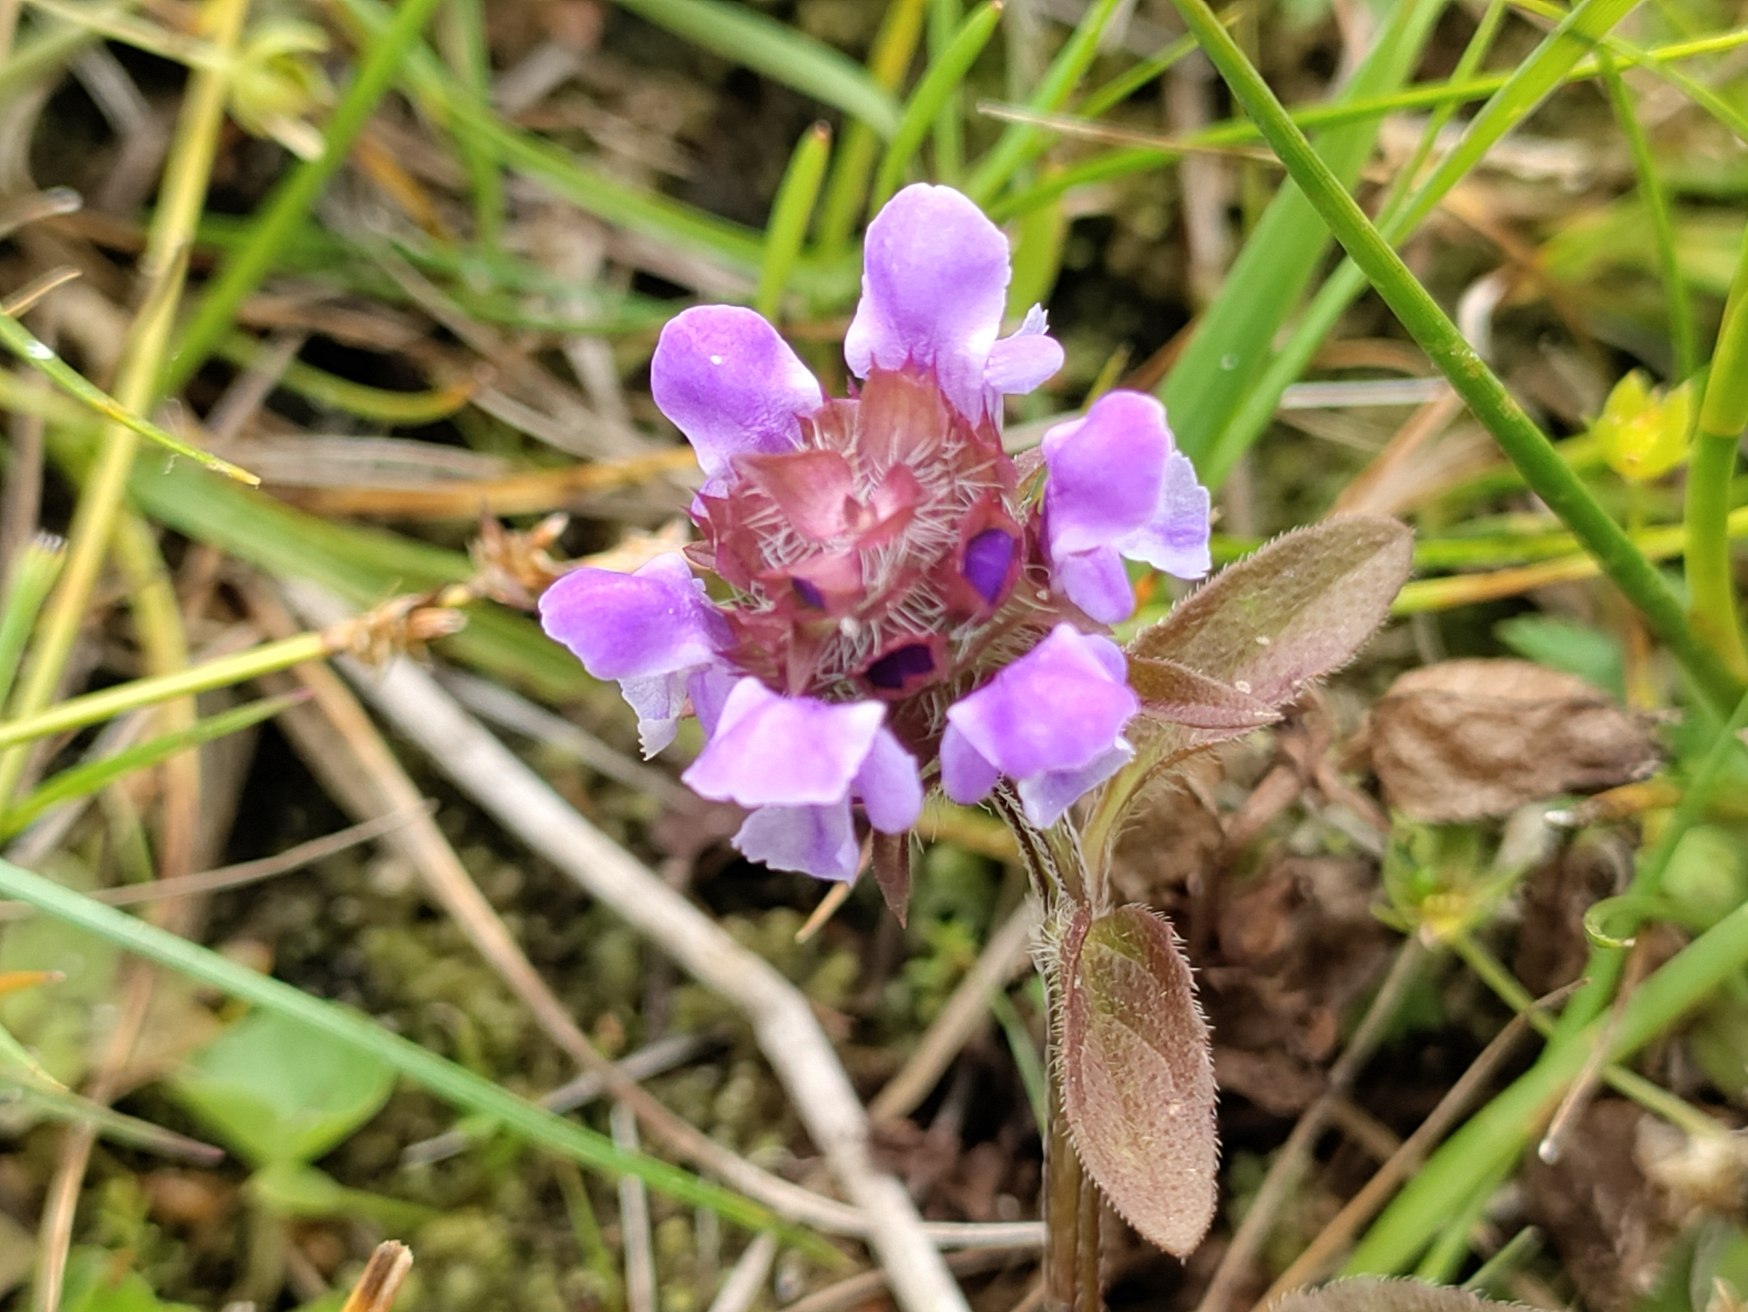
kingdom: Plantae
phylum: Tracheophyta
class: Magnoliopsida
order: Lamiales
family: Lamiaceae
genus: Prunella
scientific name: Prunella vulgaris
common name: Almindelig brunelle
